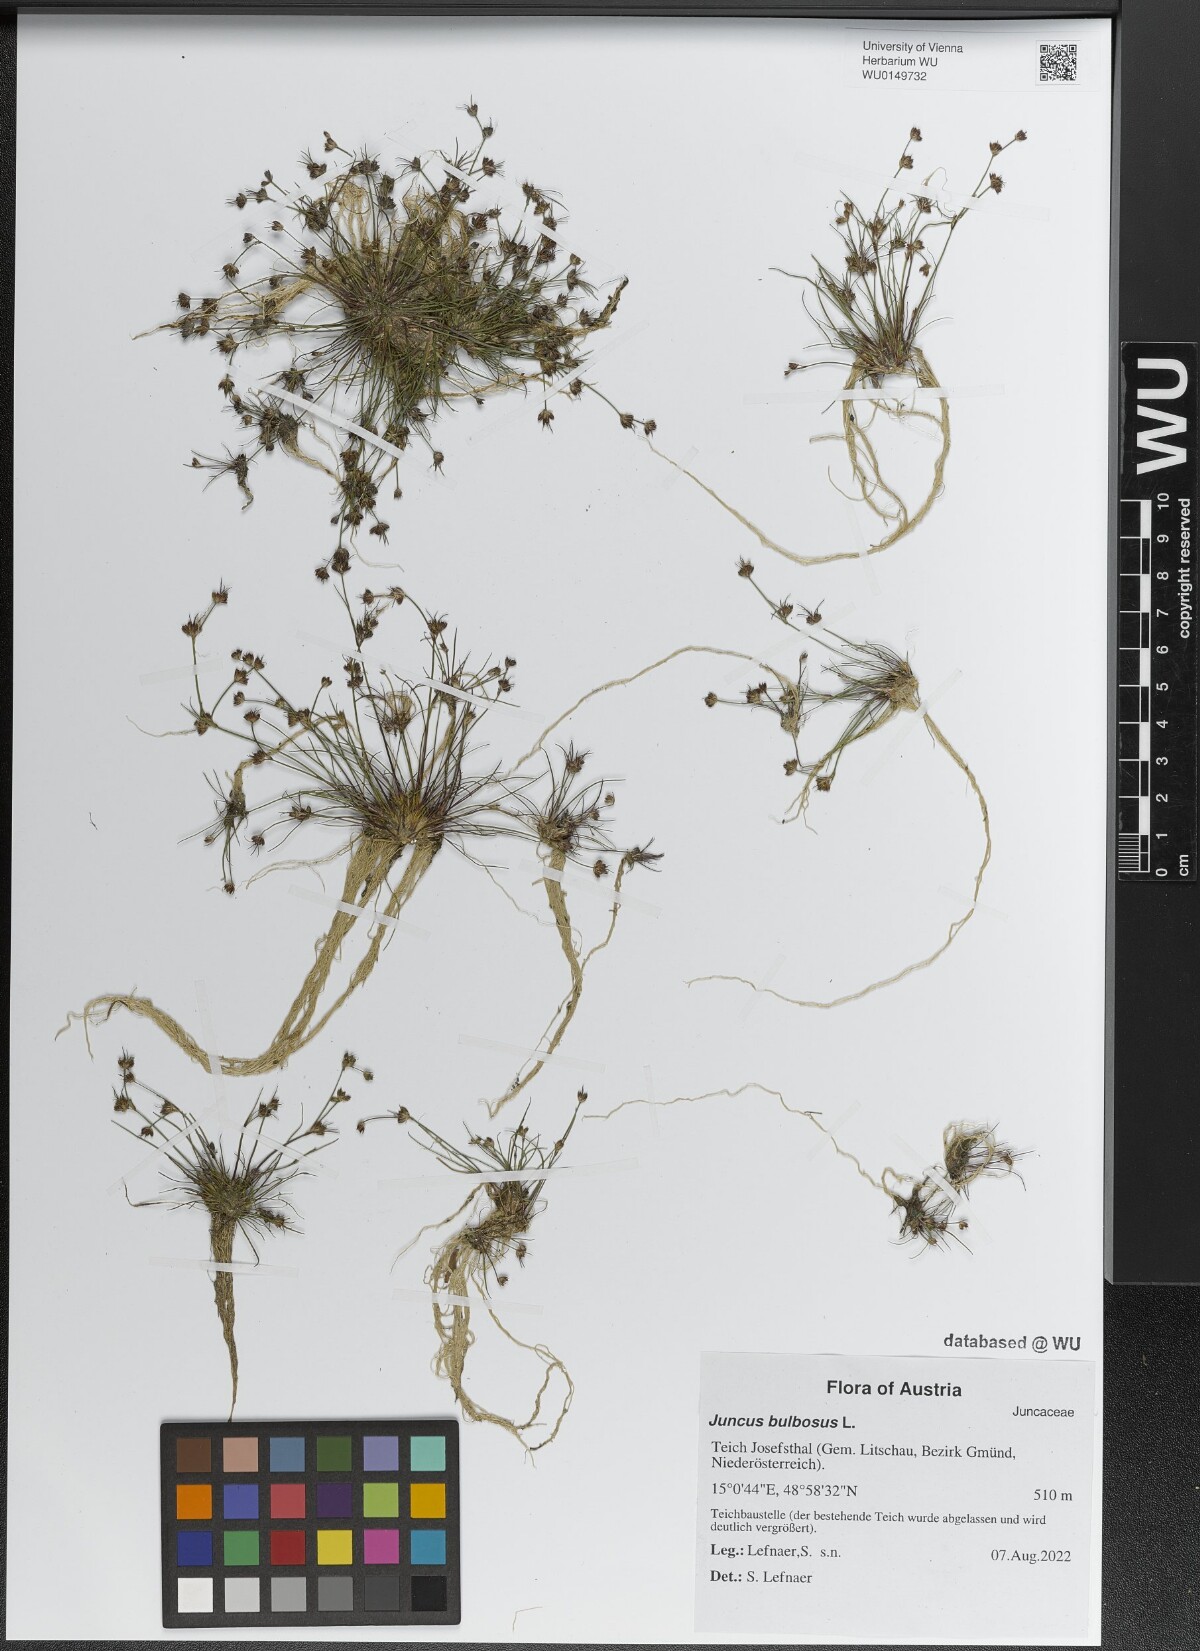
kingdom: Plantae
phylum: Tracheophyta
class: Liliopsida
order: Poales
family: Juncaceae
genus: Juncus
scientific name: Juncus bulbosus
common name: Bulbous rush
